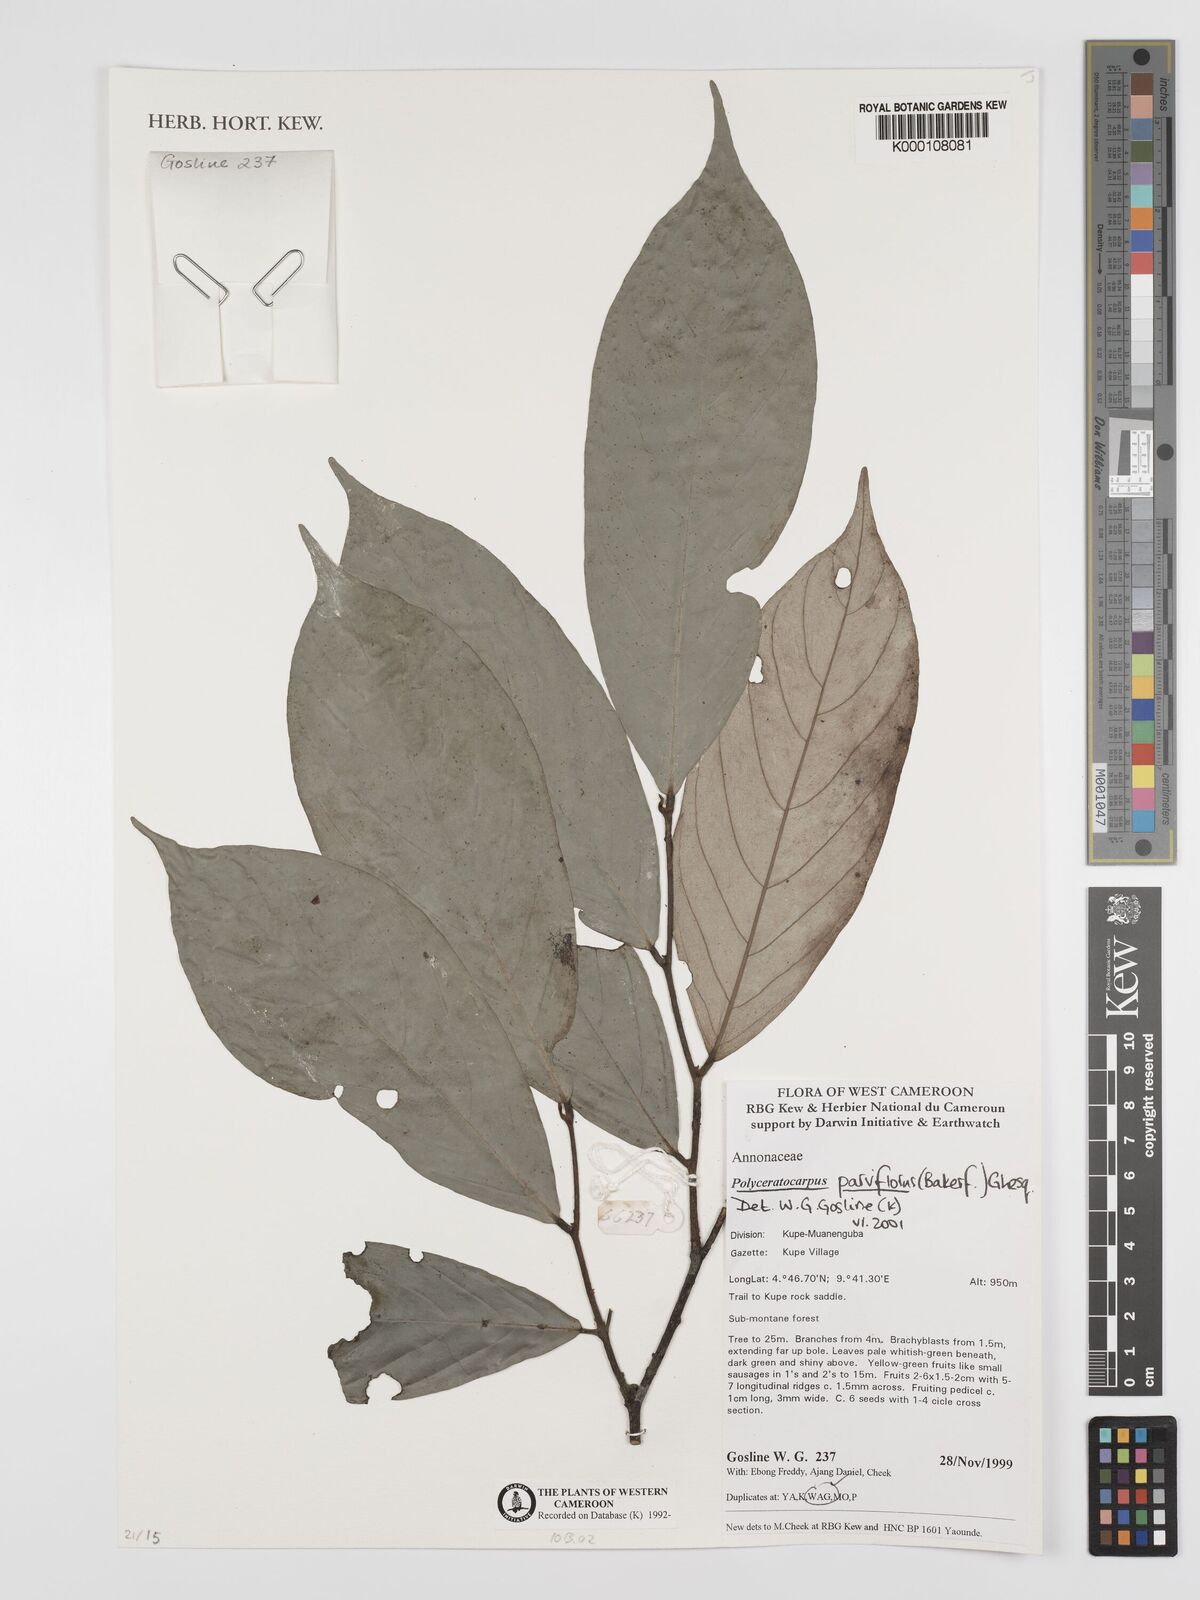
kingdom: Plantae
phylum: Tracheophyta
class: Magnoliopsida
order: Magnoliales
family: Annonaceae
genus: Polyceratocarpus
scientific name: Polyceratocarpus parviflorus
